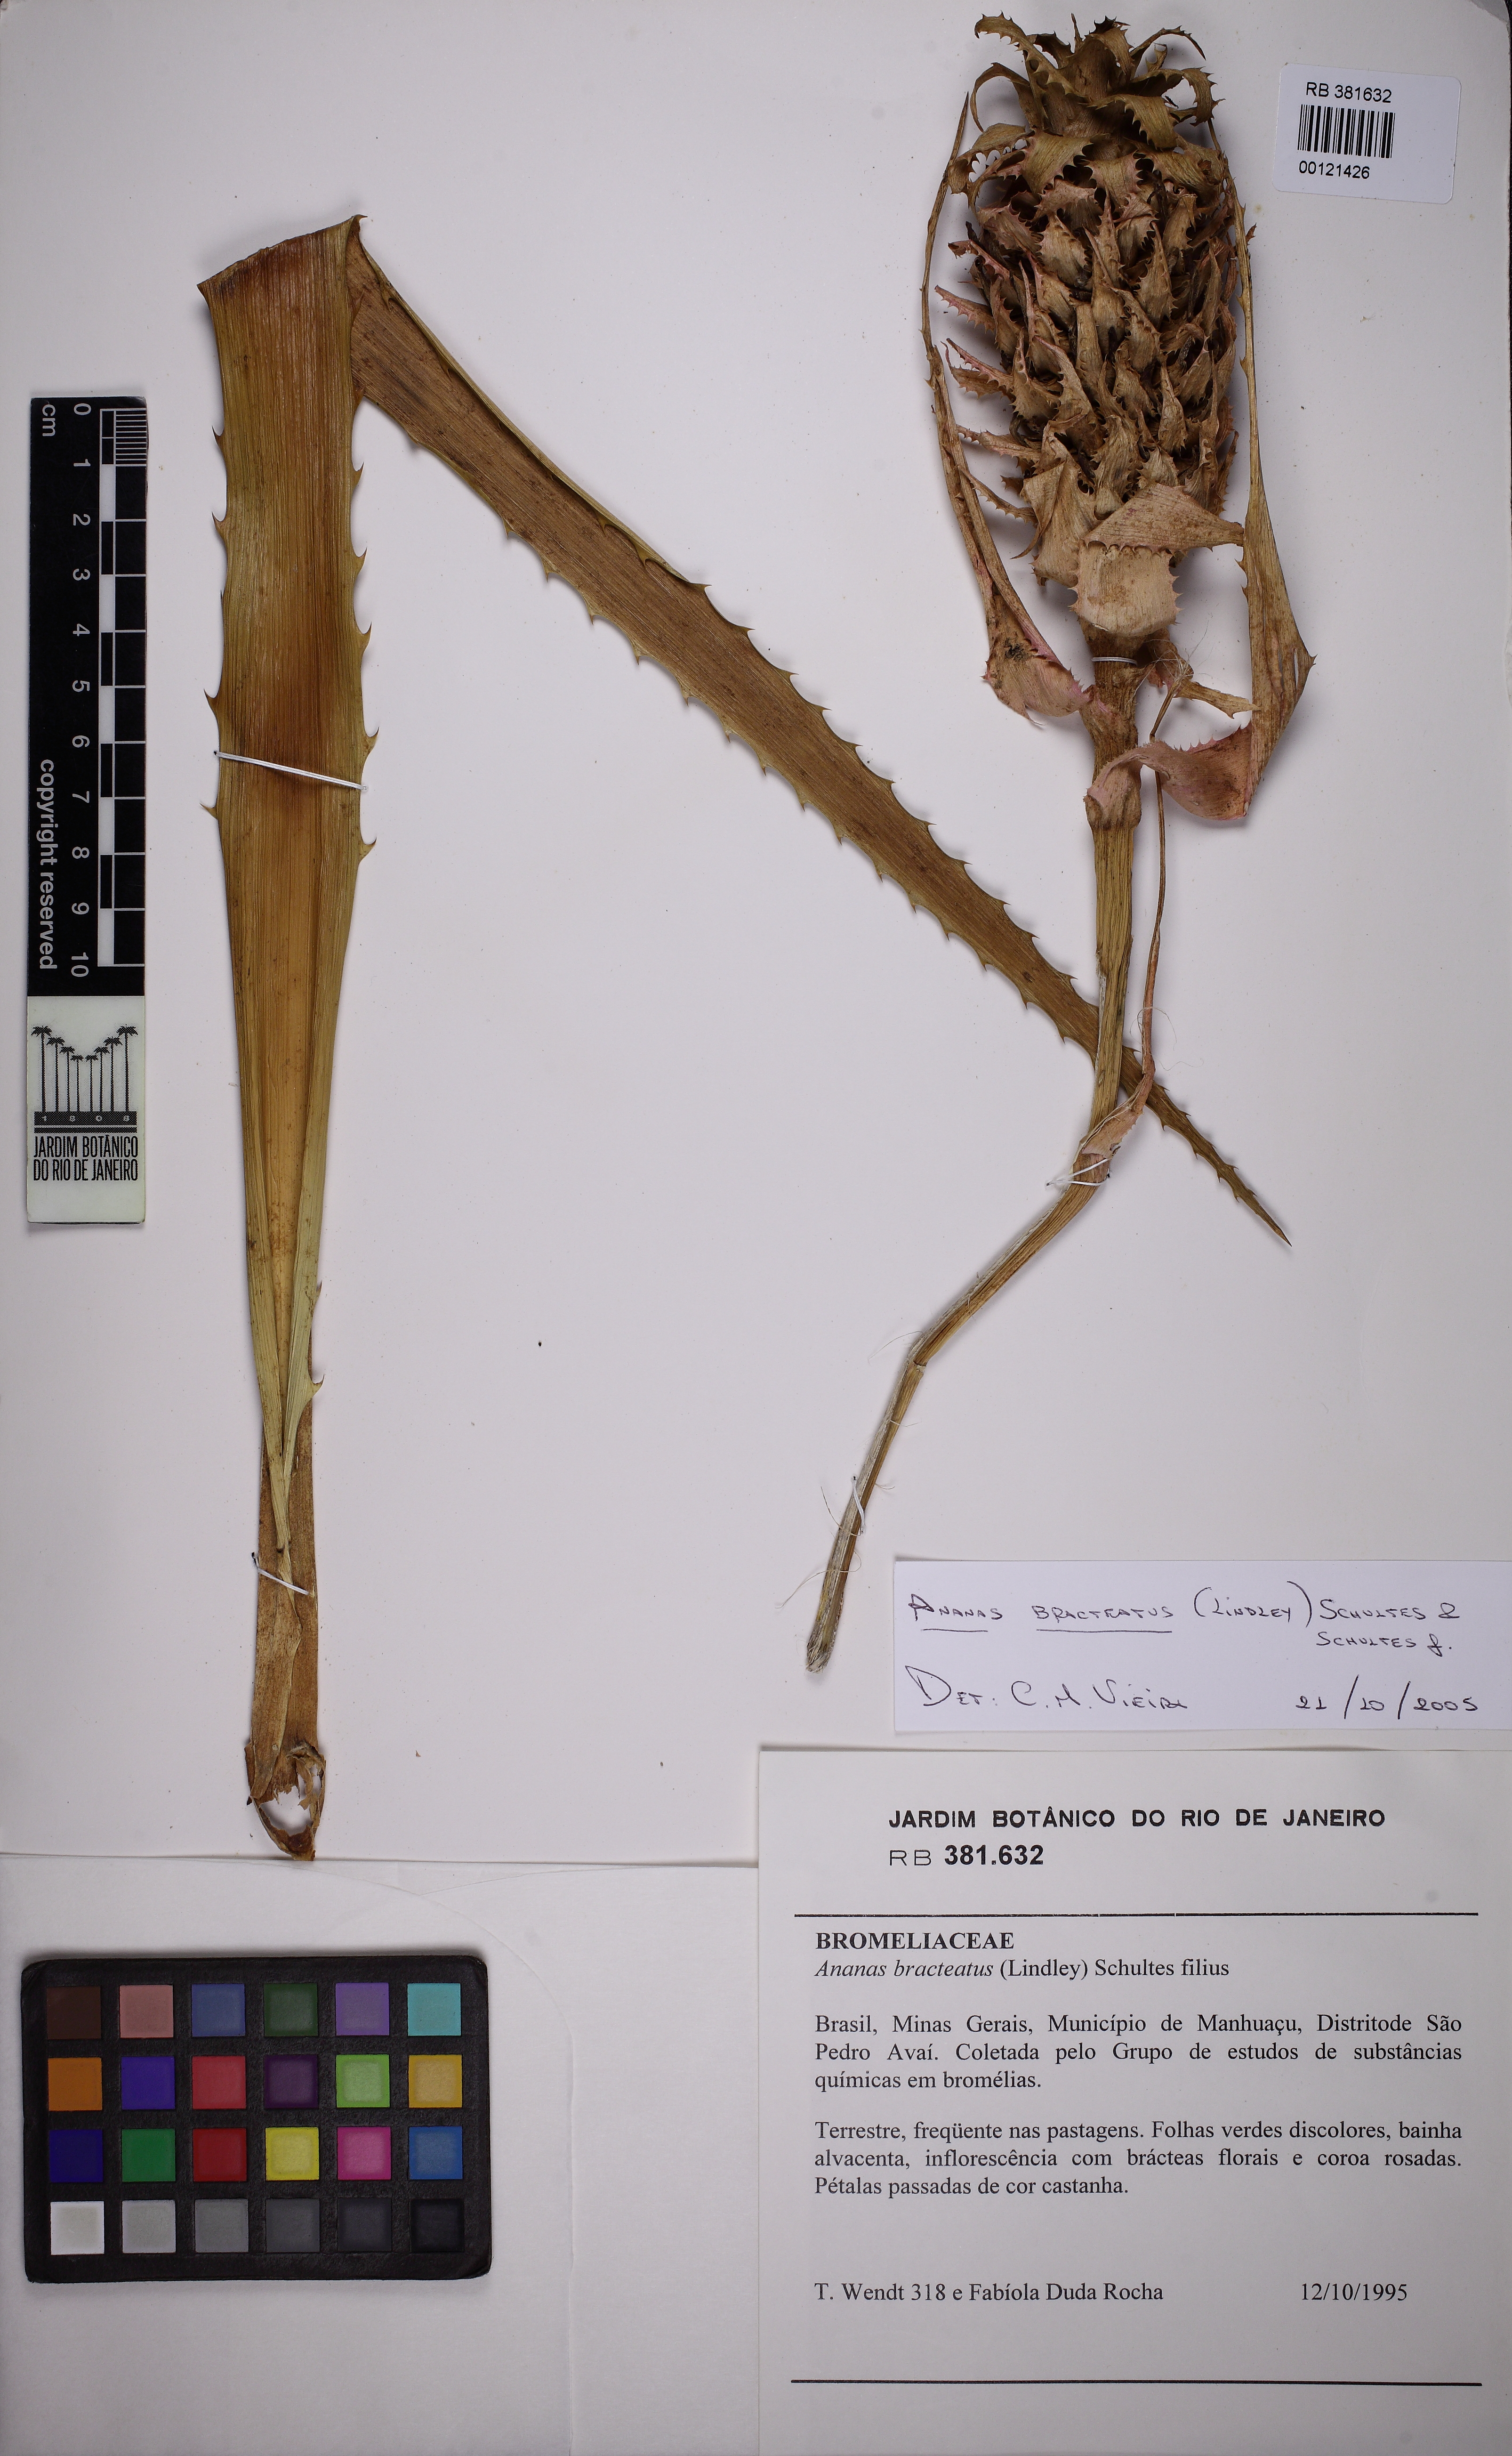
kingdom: Plantae
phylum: Tracheophyta
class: Liliopsida
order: Poales
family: Bromeliaceae
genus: Ananas
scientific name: Ananas comosus
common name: Pineapple
